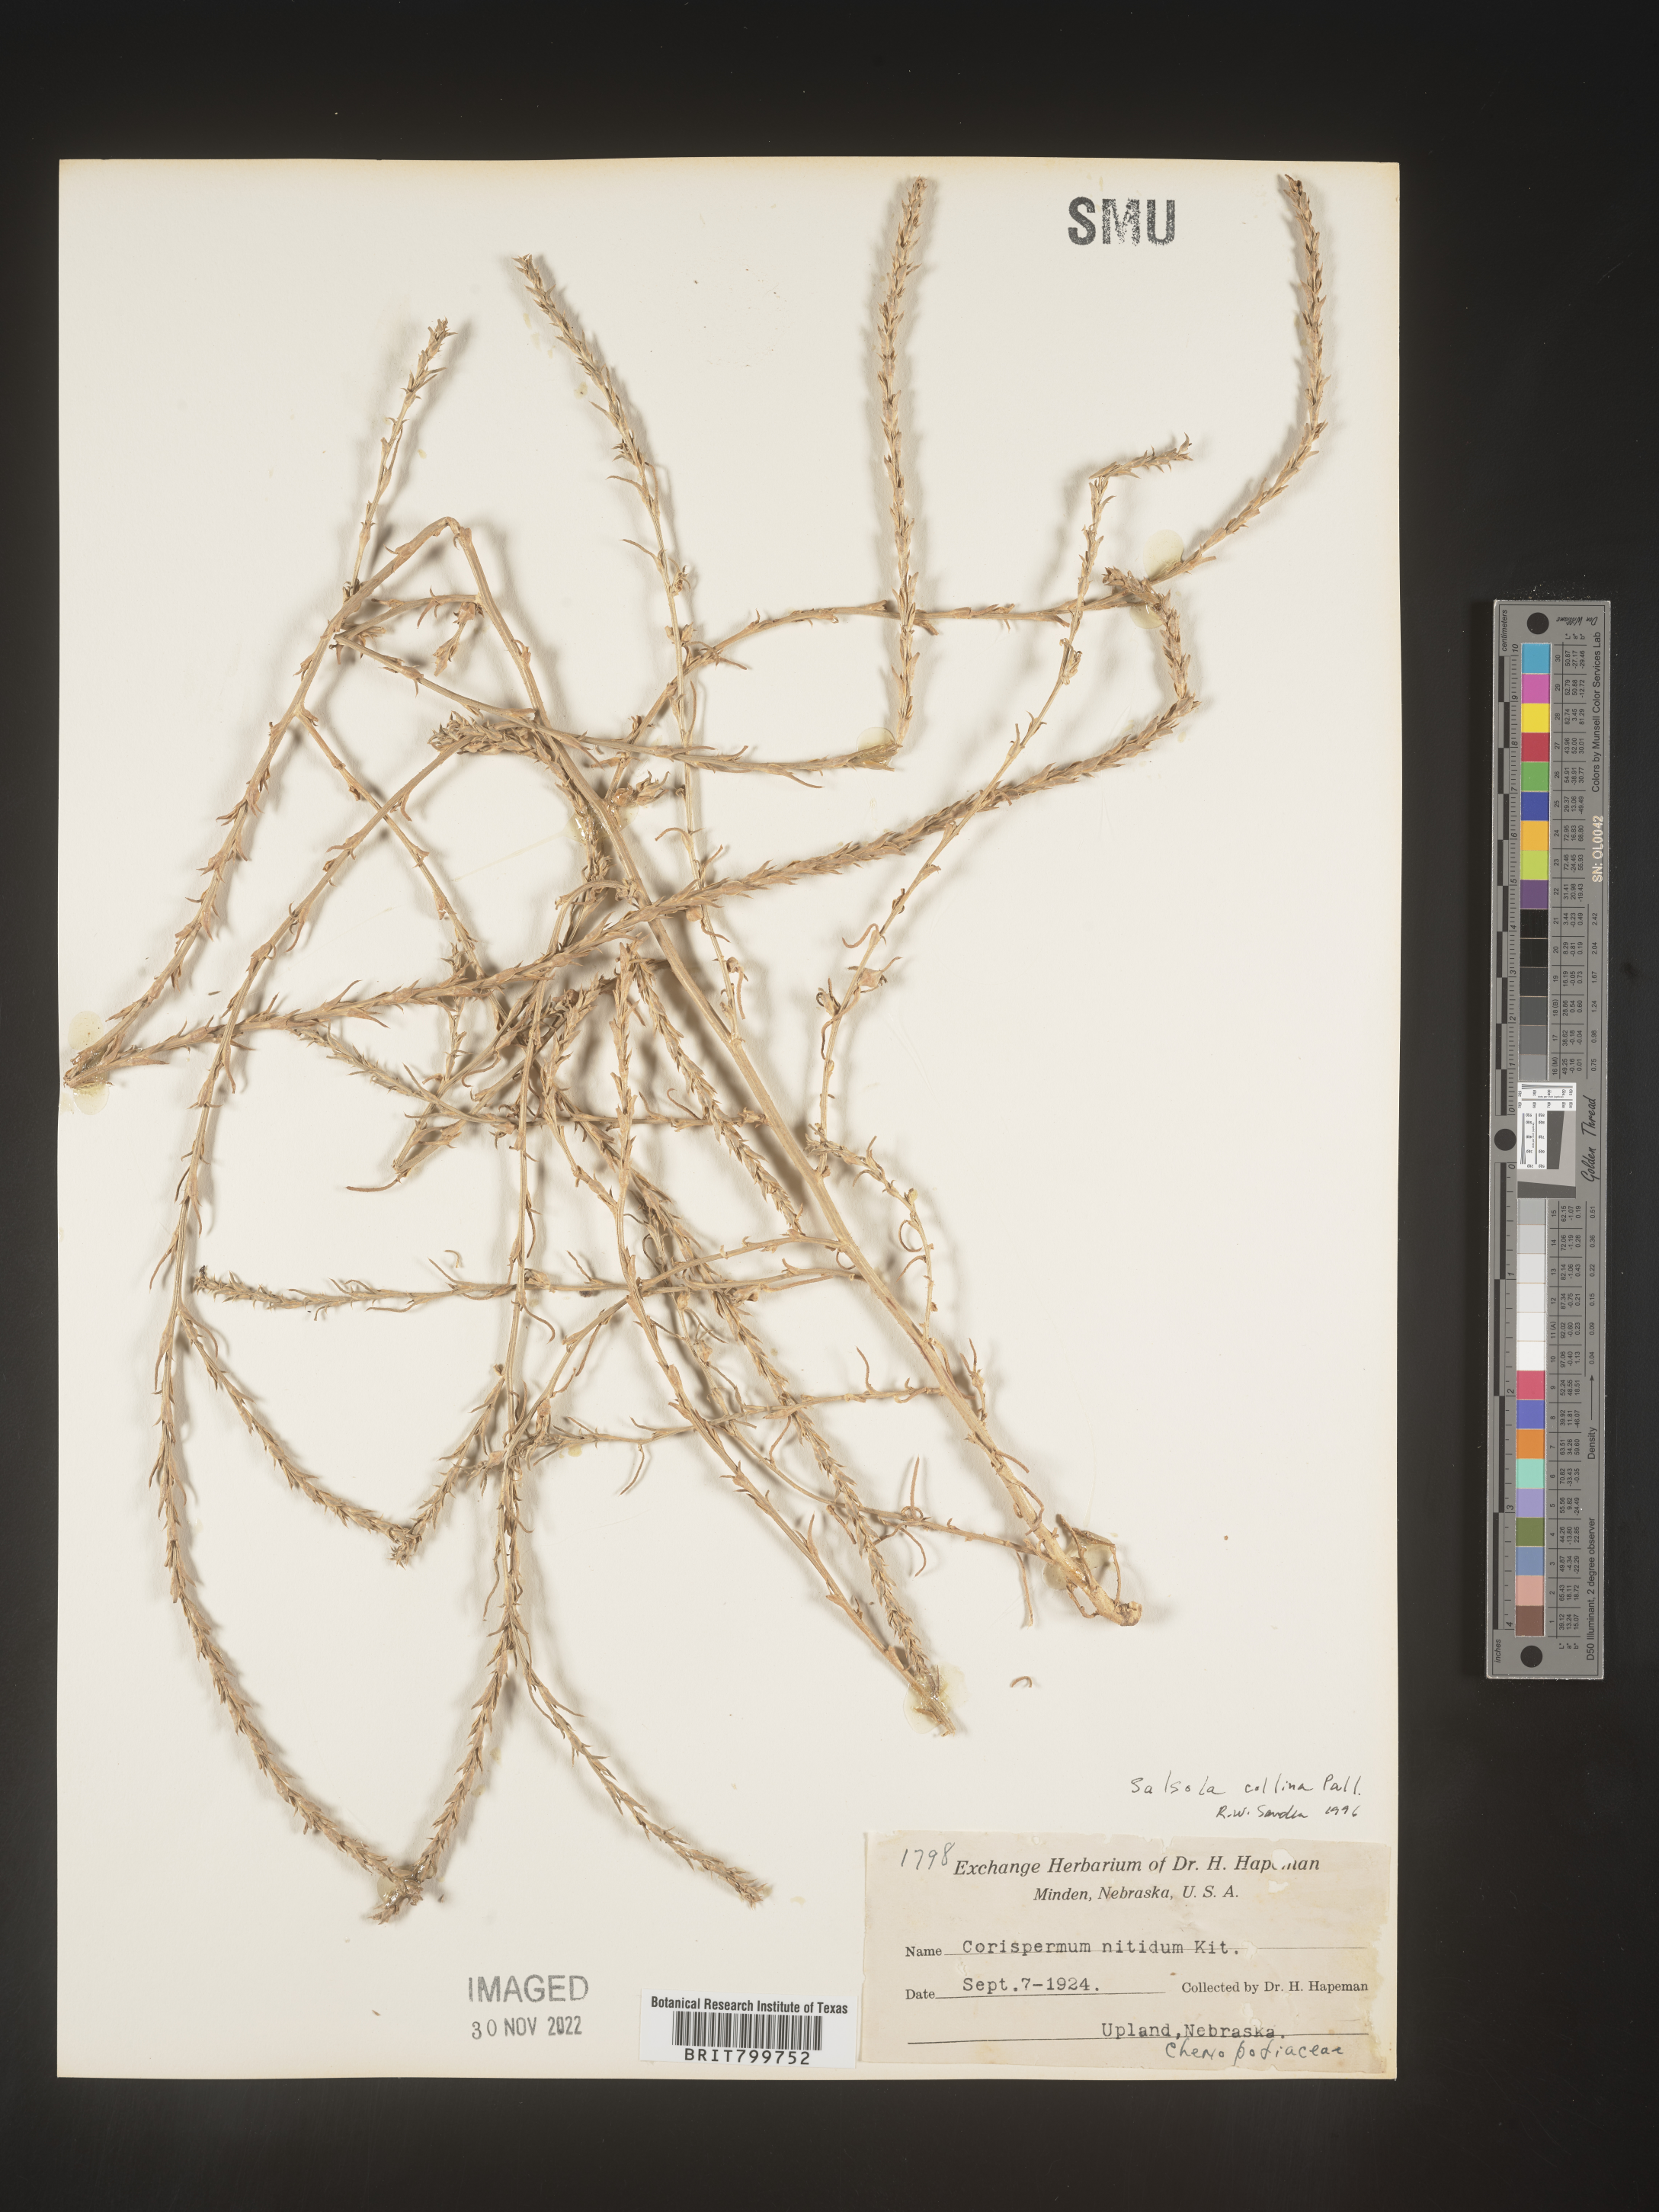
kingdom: Plantae
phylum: Tracheophyta
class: Magnoliopsida
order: Caryophyllales
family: Amaranthaceae
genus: Salsola
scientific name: Salsola collina
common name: Tumbleweed
